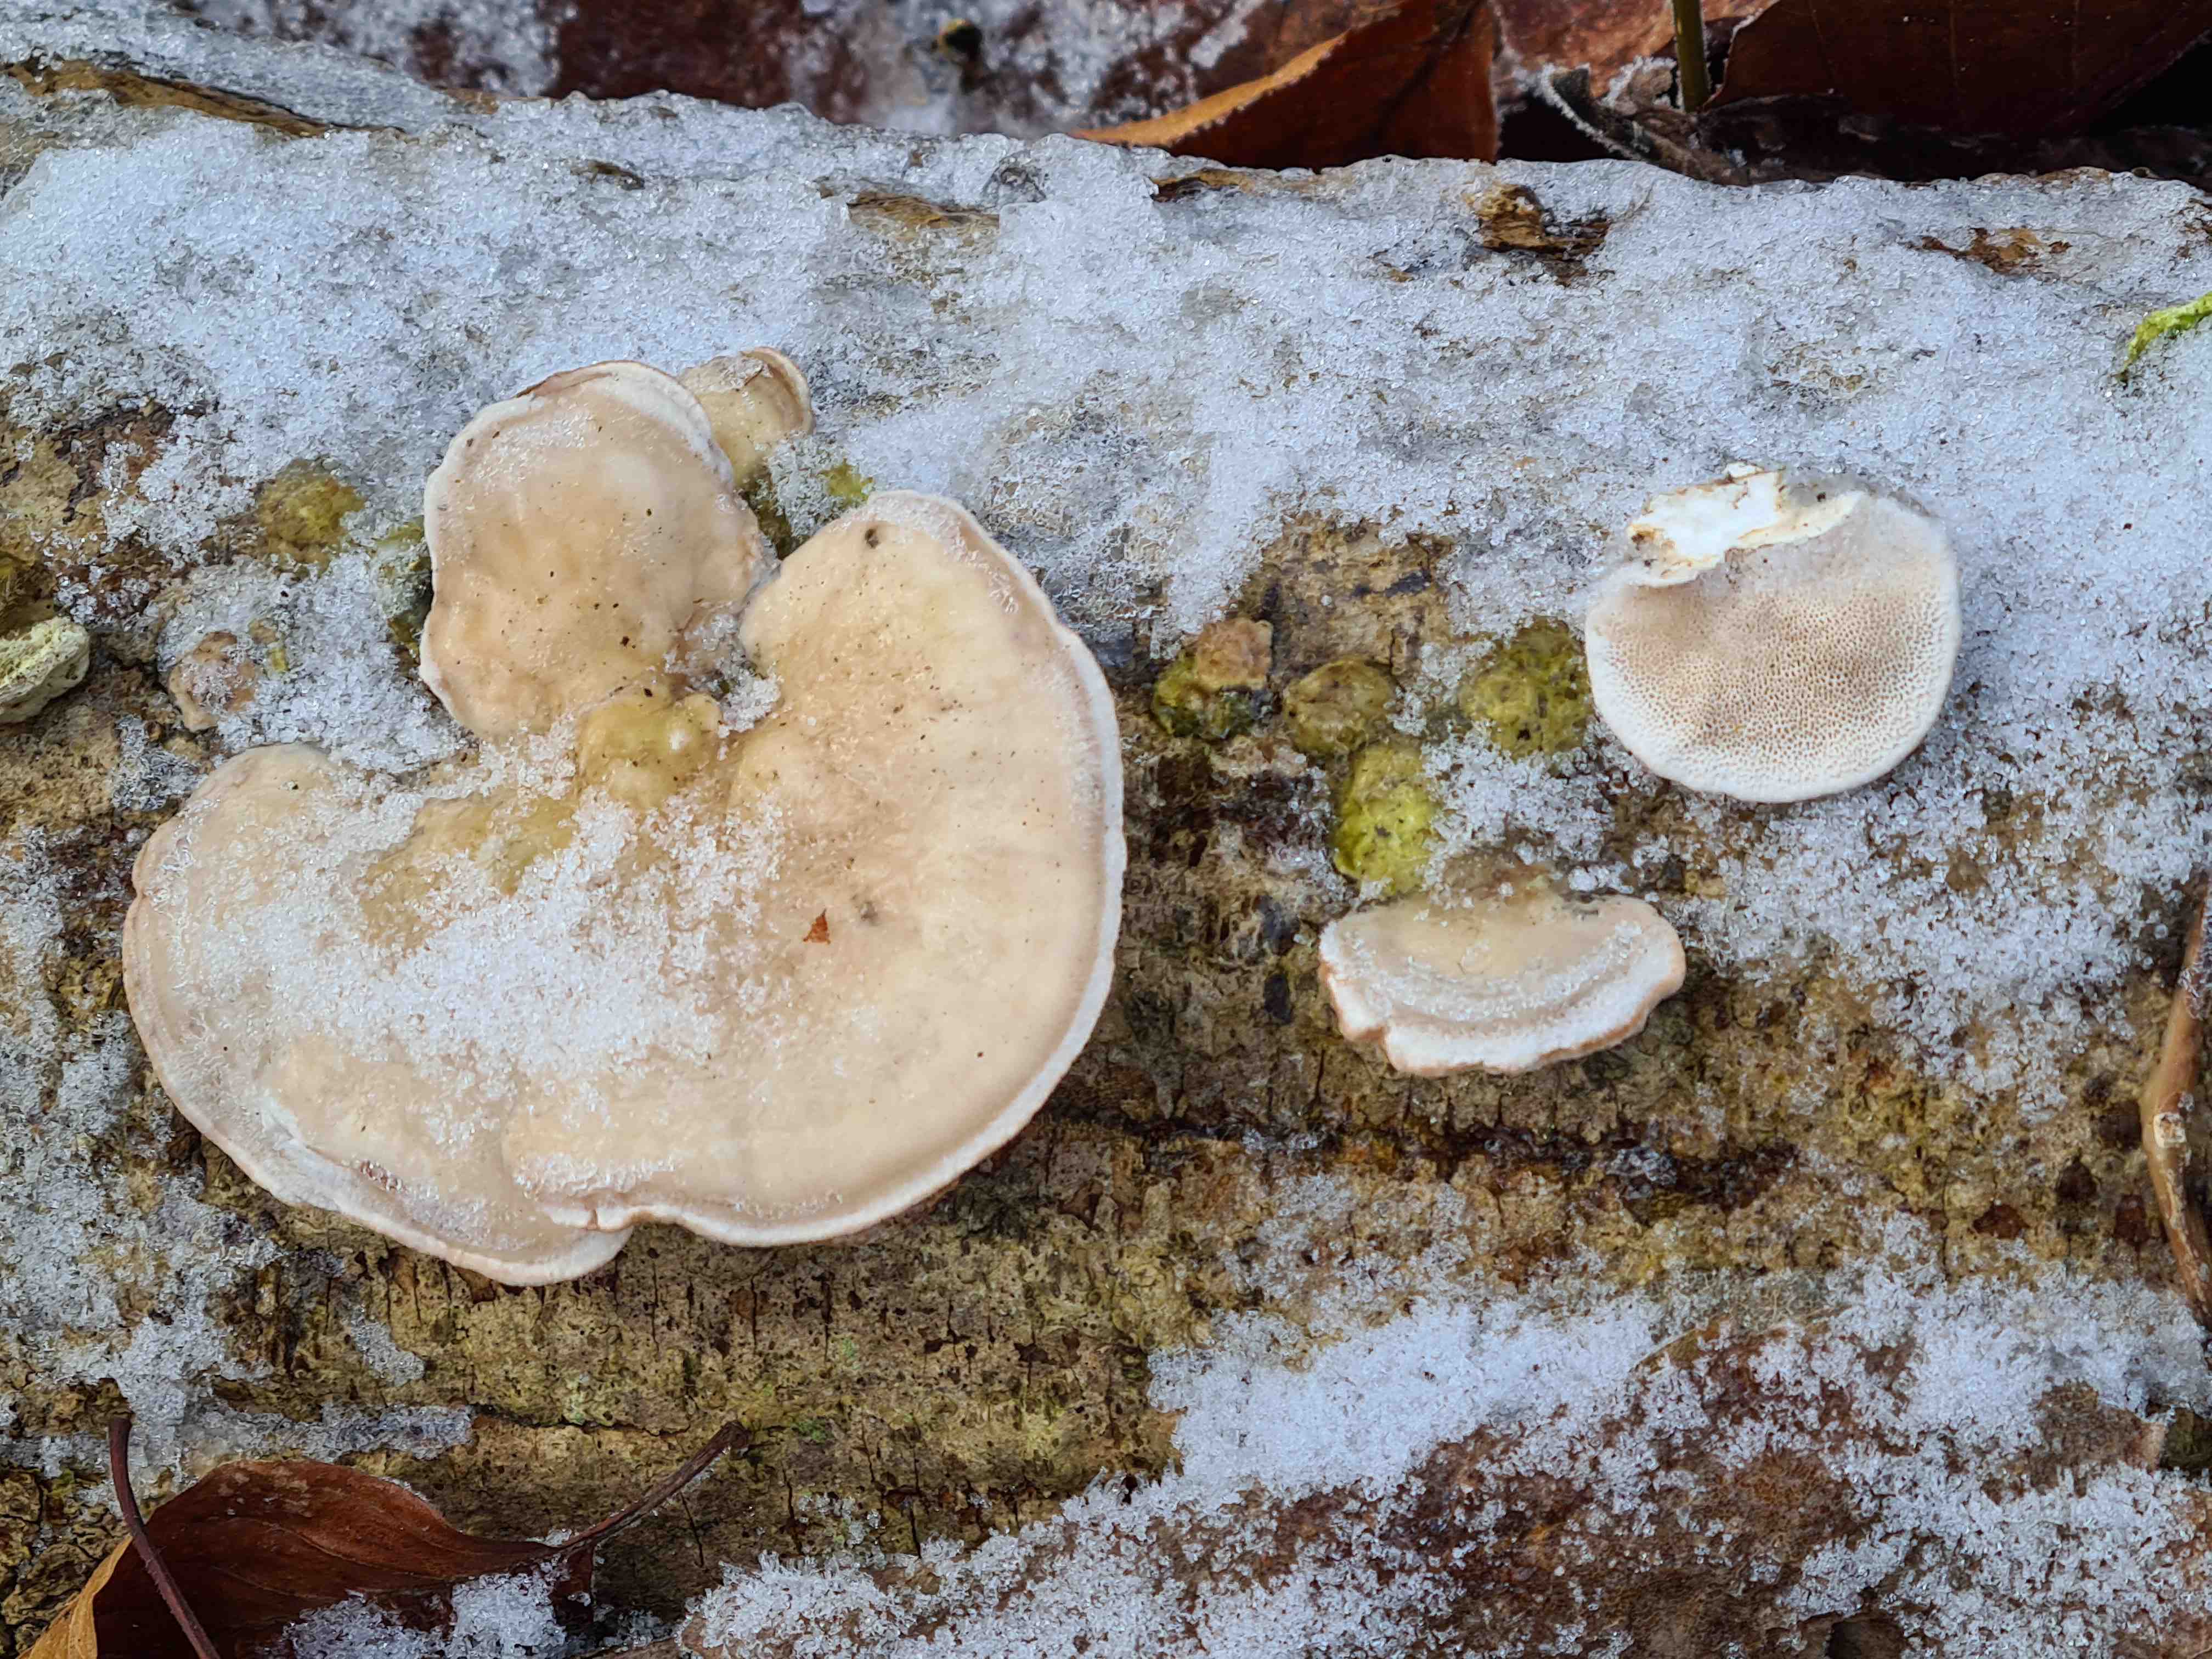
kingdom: Fungi
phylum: Basidiomycota
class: Agaricomycetes
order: Polyporales
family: Polyporaceae
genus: Trametes
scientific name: Trametes hirsuta
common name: håret læderporesvamp
